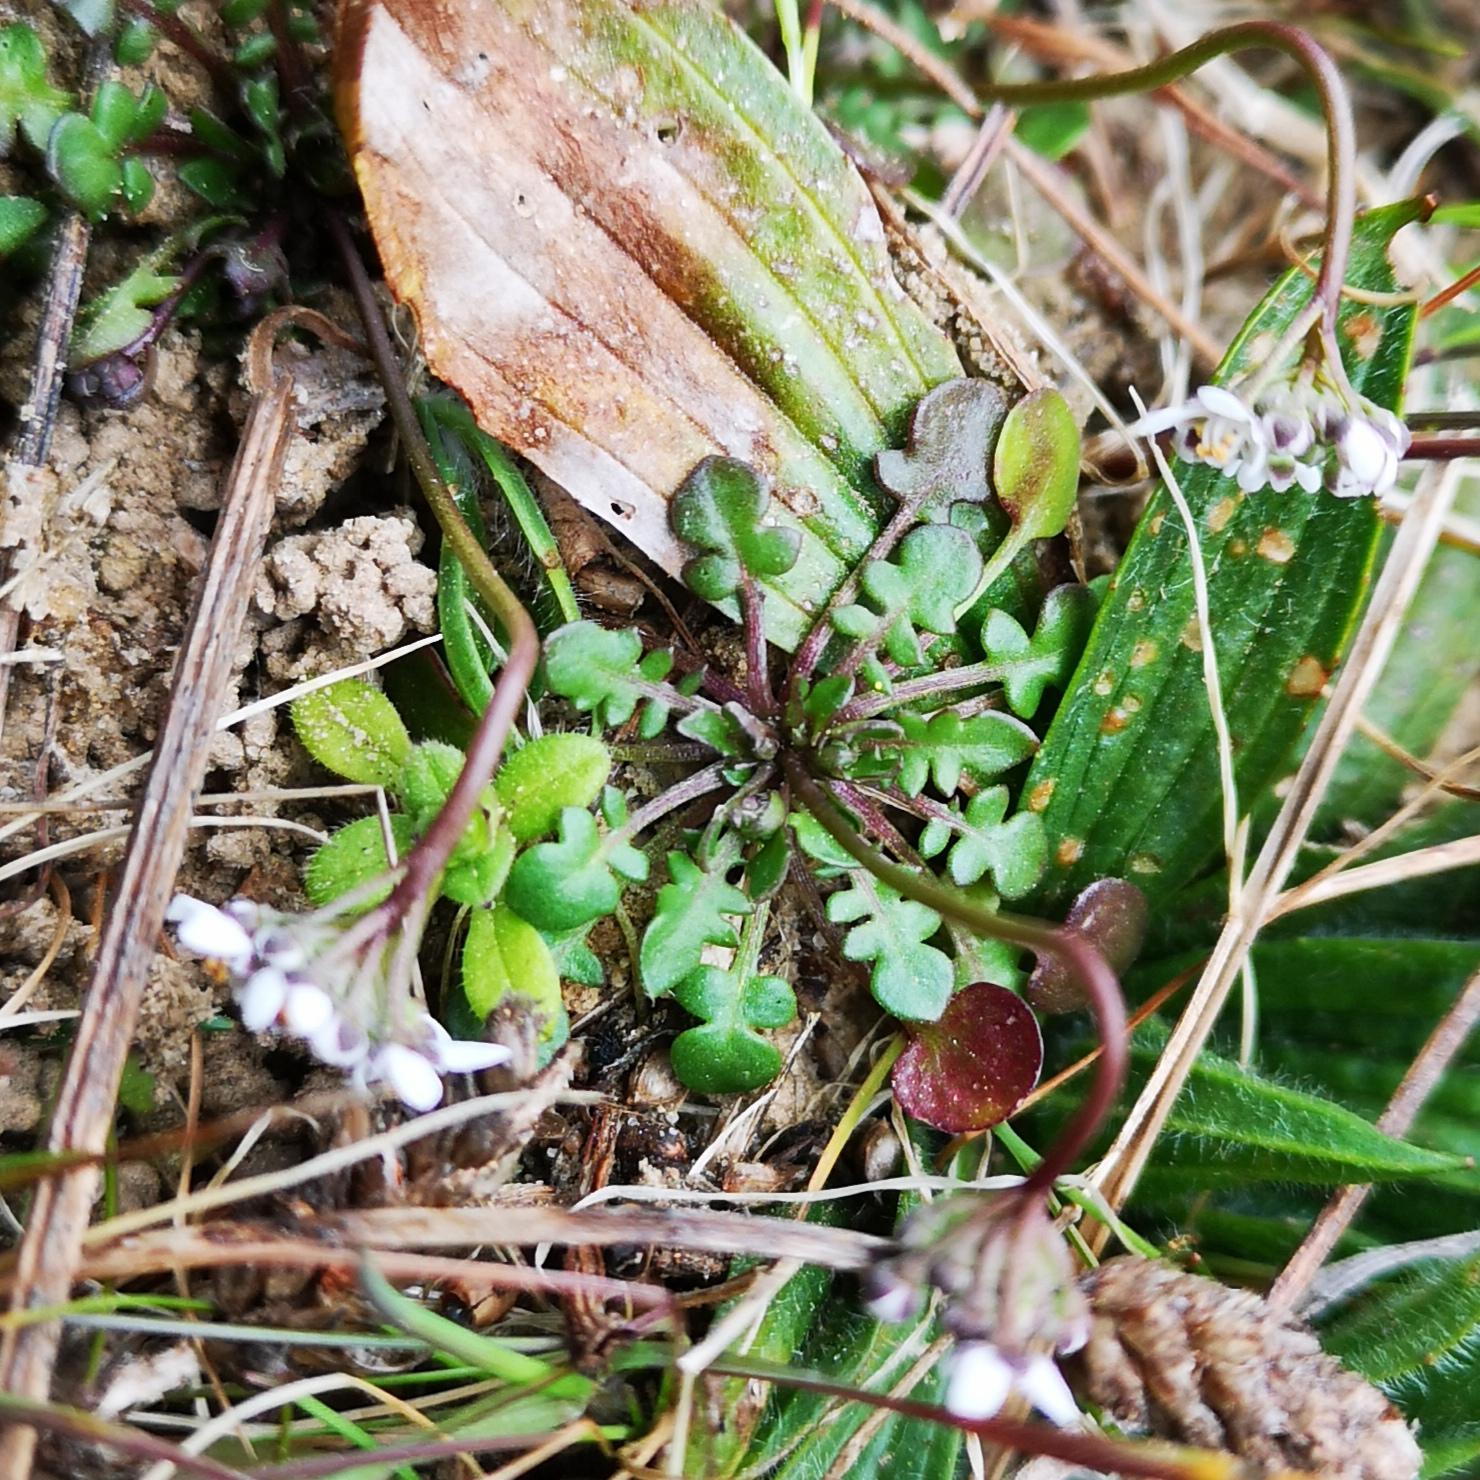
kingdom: Plantae
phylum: Tracheophyta
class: Magnoliopsida
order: Brassicales
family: Brassicaceae
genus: Teesdalia
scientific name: Teesdalia nudicaulis
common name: Flipkrave
